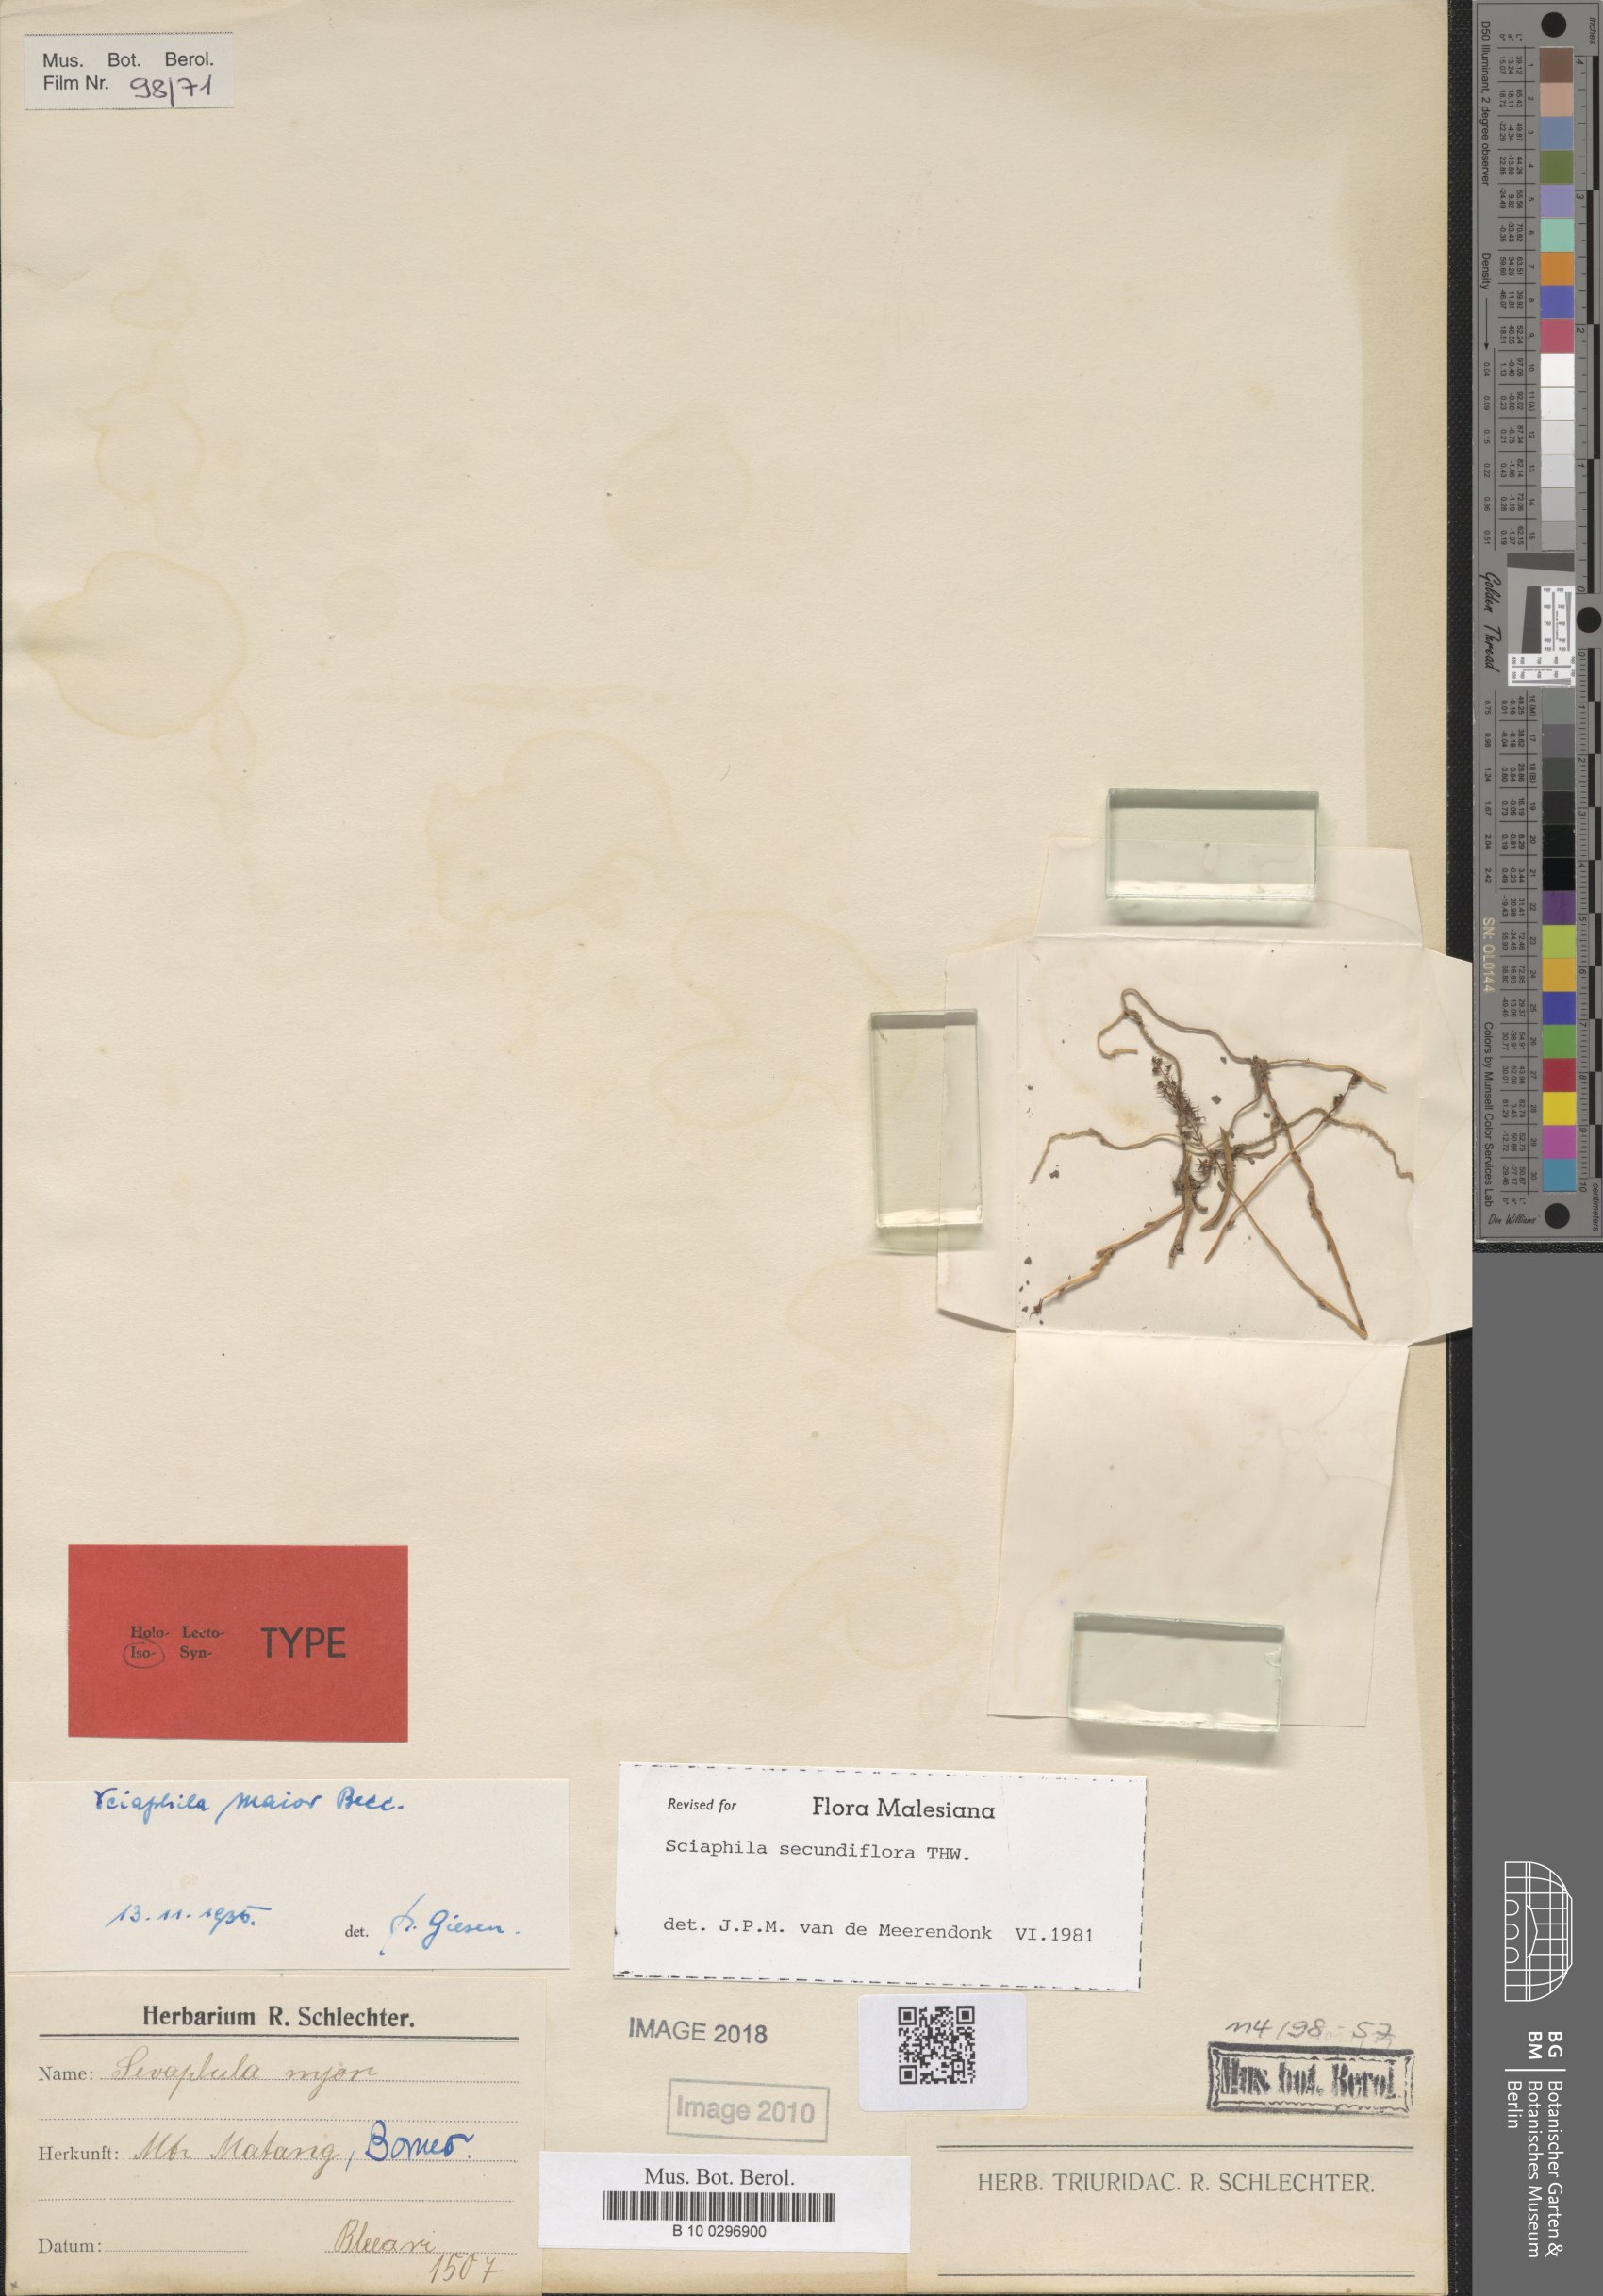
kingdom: Plantae
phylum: Tracheophyta
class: Liliopsida
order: Pandanales
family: Triuridaceae
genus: Sciaphila
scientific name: Sciaphila secundiflora
